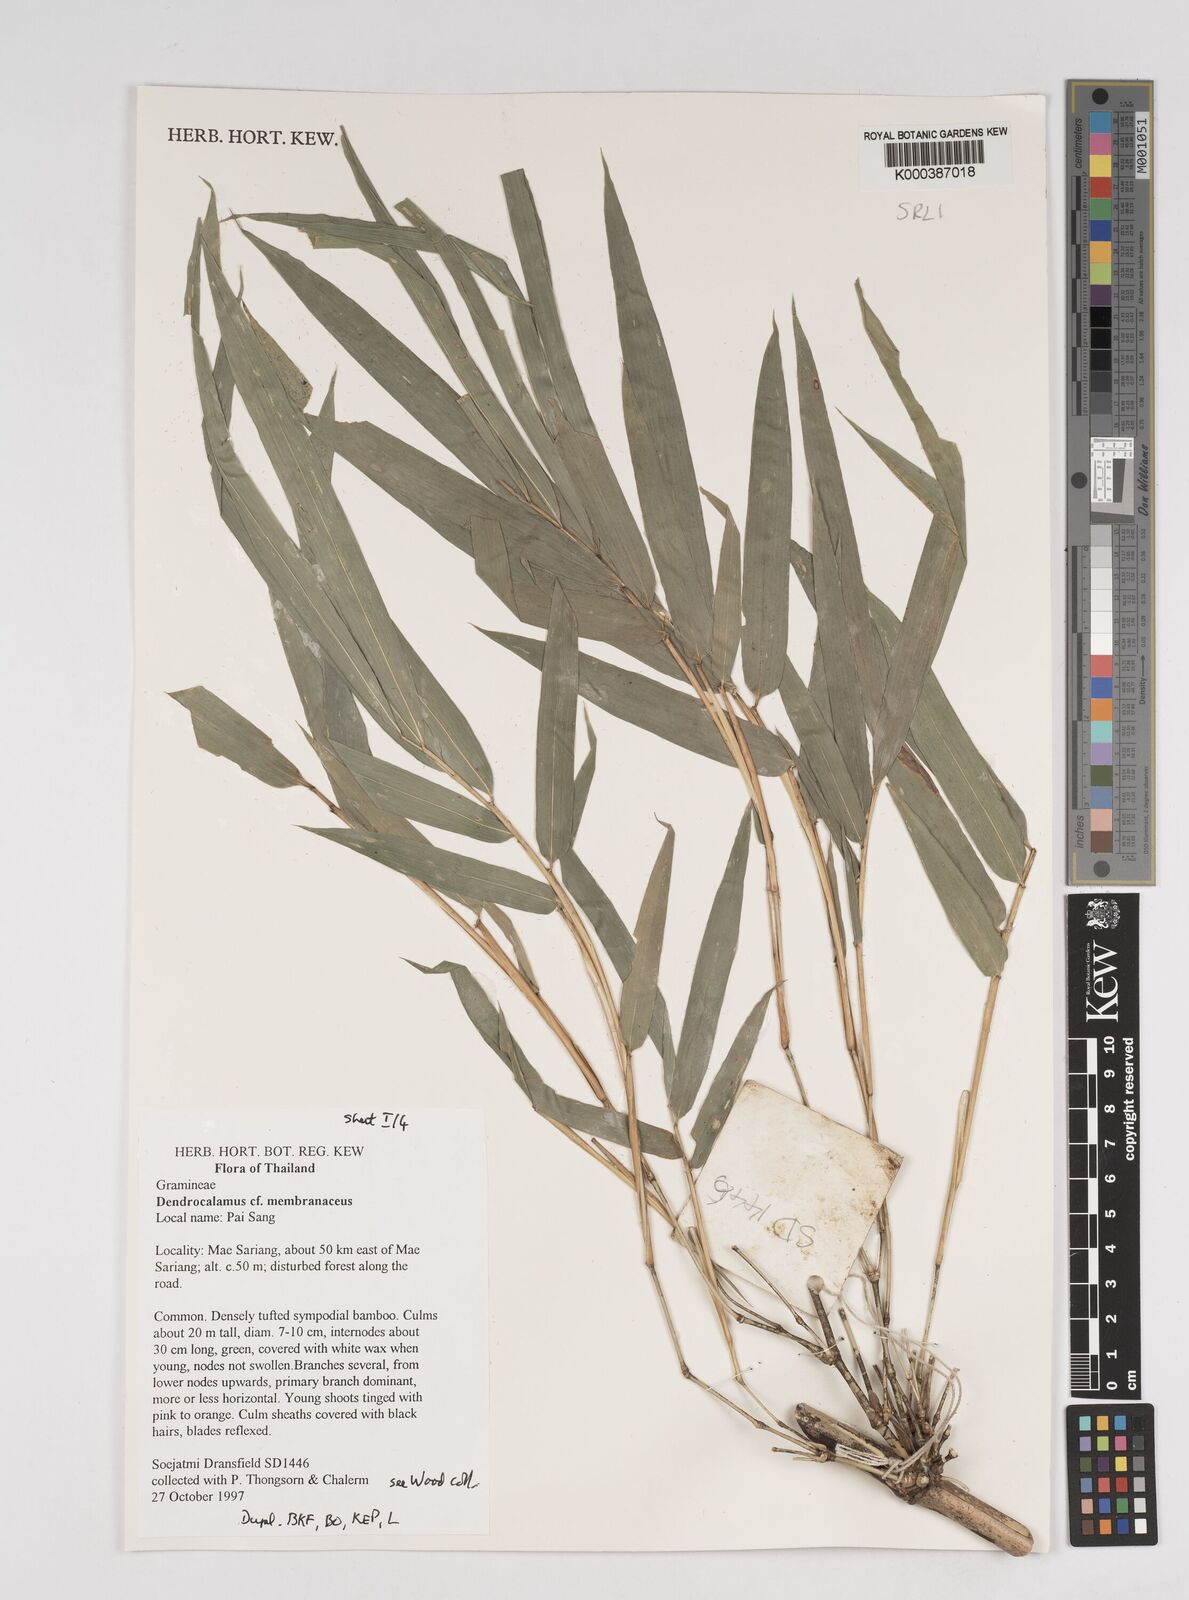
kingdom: Plantae
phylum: Tracheophyta
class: Liliopsida
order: Poales
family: Poaceae
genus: Dendrocalamus
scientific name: Dendrocalamus membranaceus
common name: White bamboo
